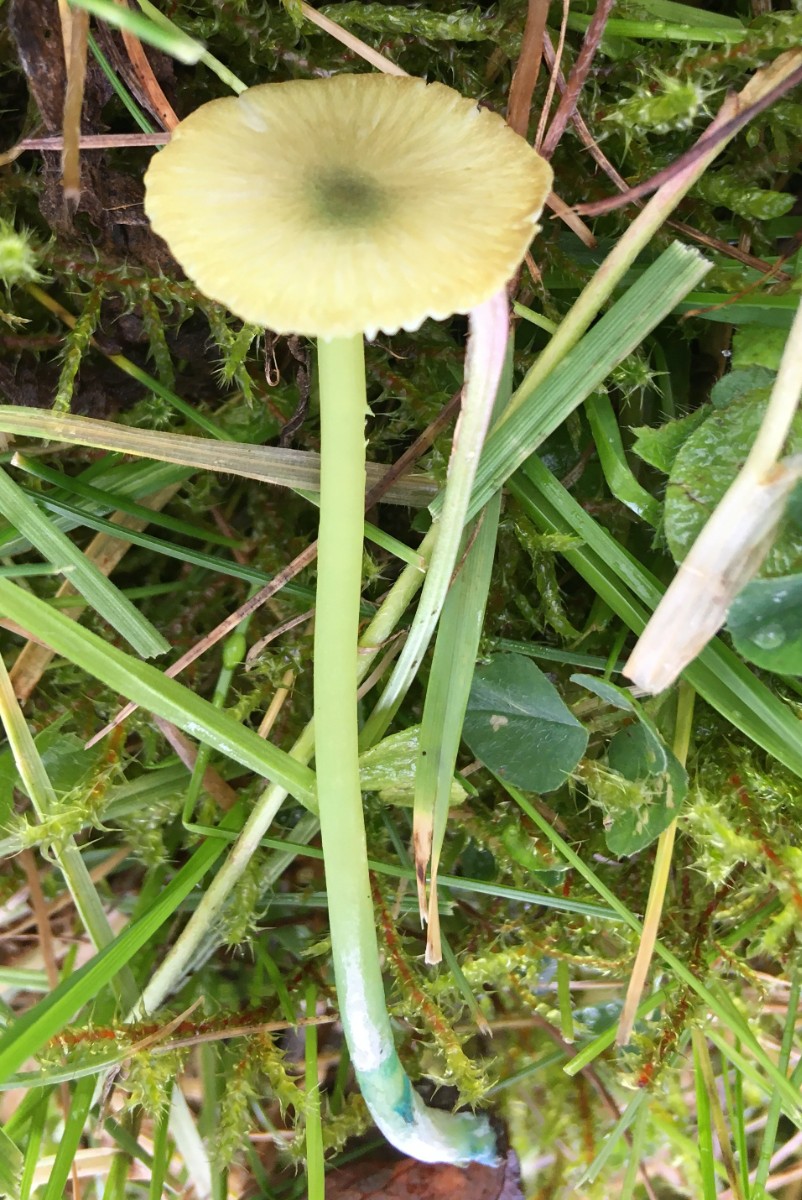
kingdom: Fungi
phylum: Basidiomycota
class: Agaricomycetes
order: Agaricales
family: Entolomataceae
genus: Entoloma
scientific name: Entoloma incanum
